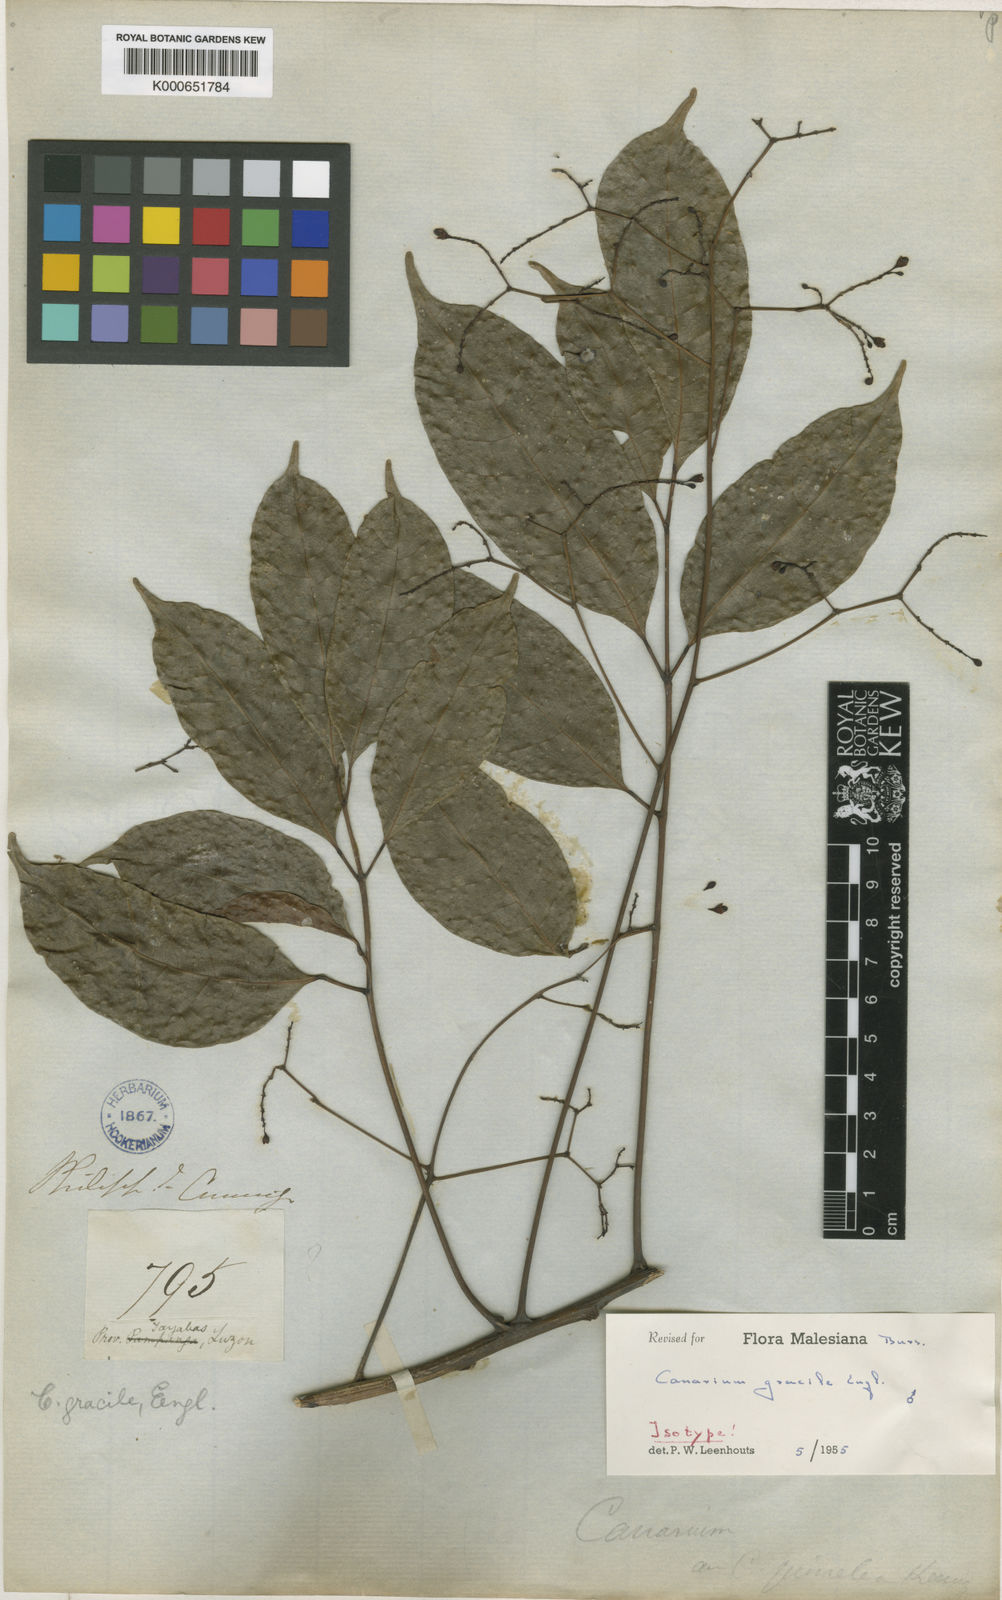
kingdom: Plantae
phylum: Tracheophyta
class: Magnoliopsida
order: Sapindales
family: Burseraceae
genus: Canarium
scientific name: Canarium gracile
